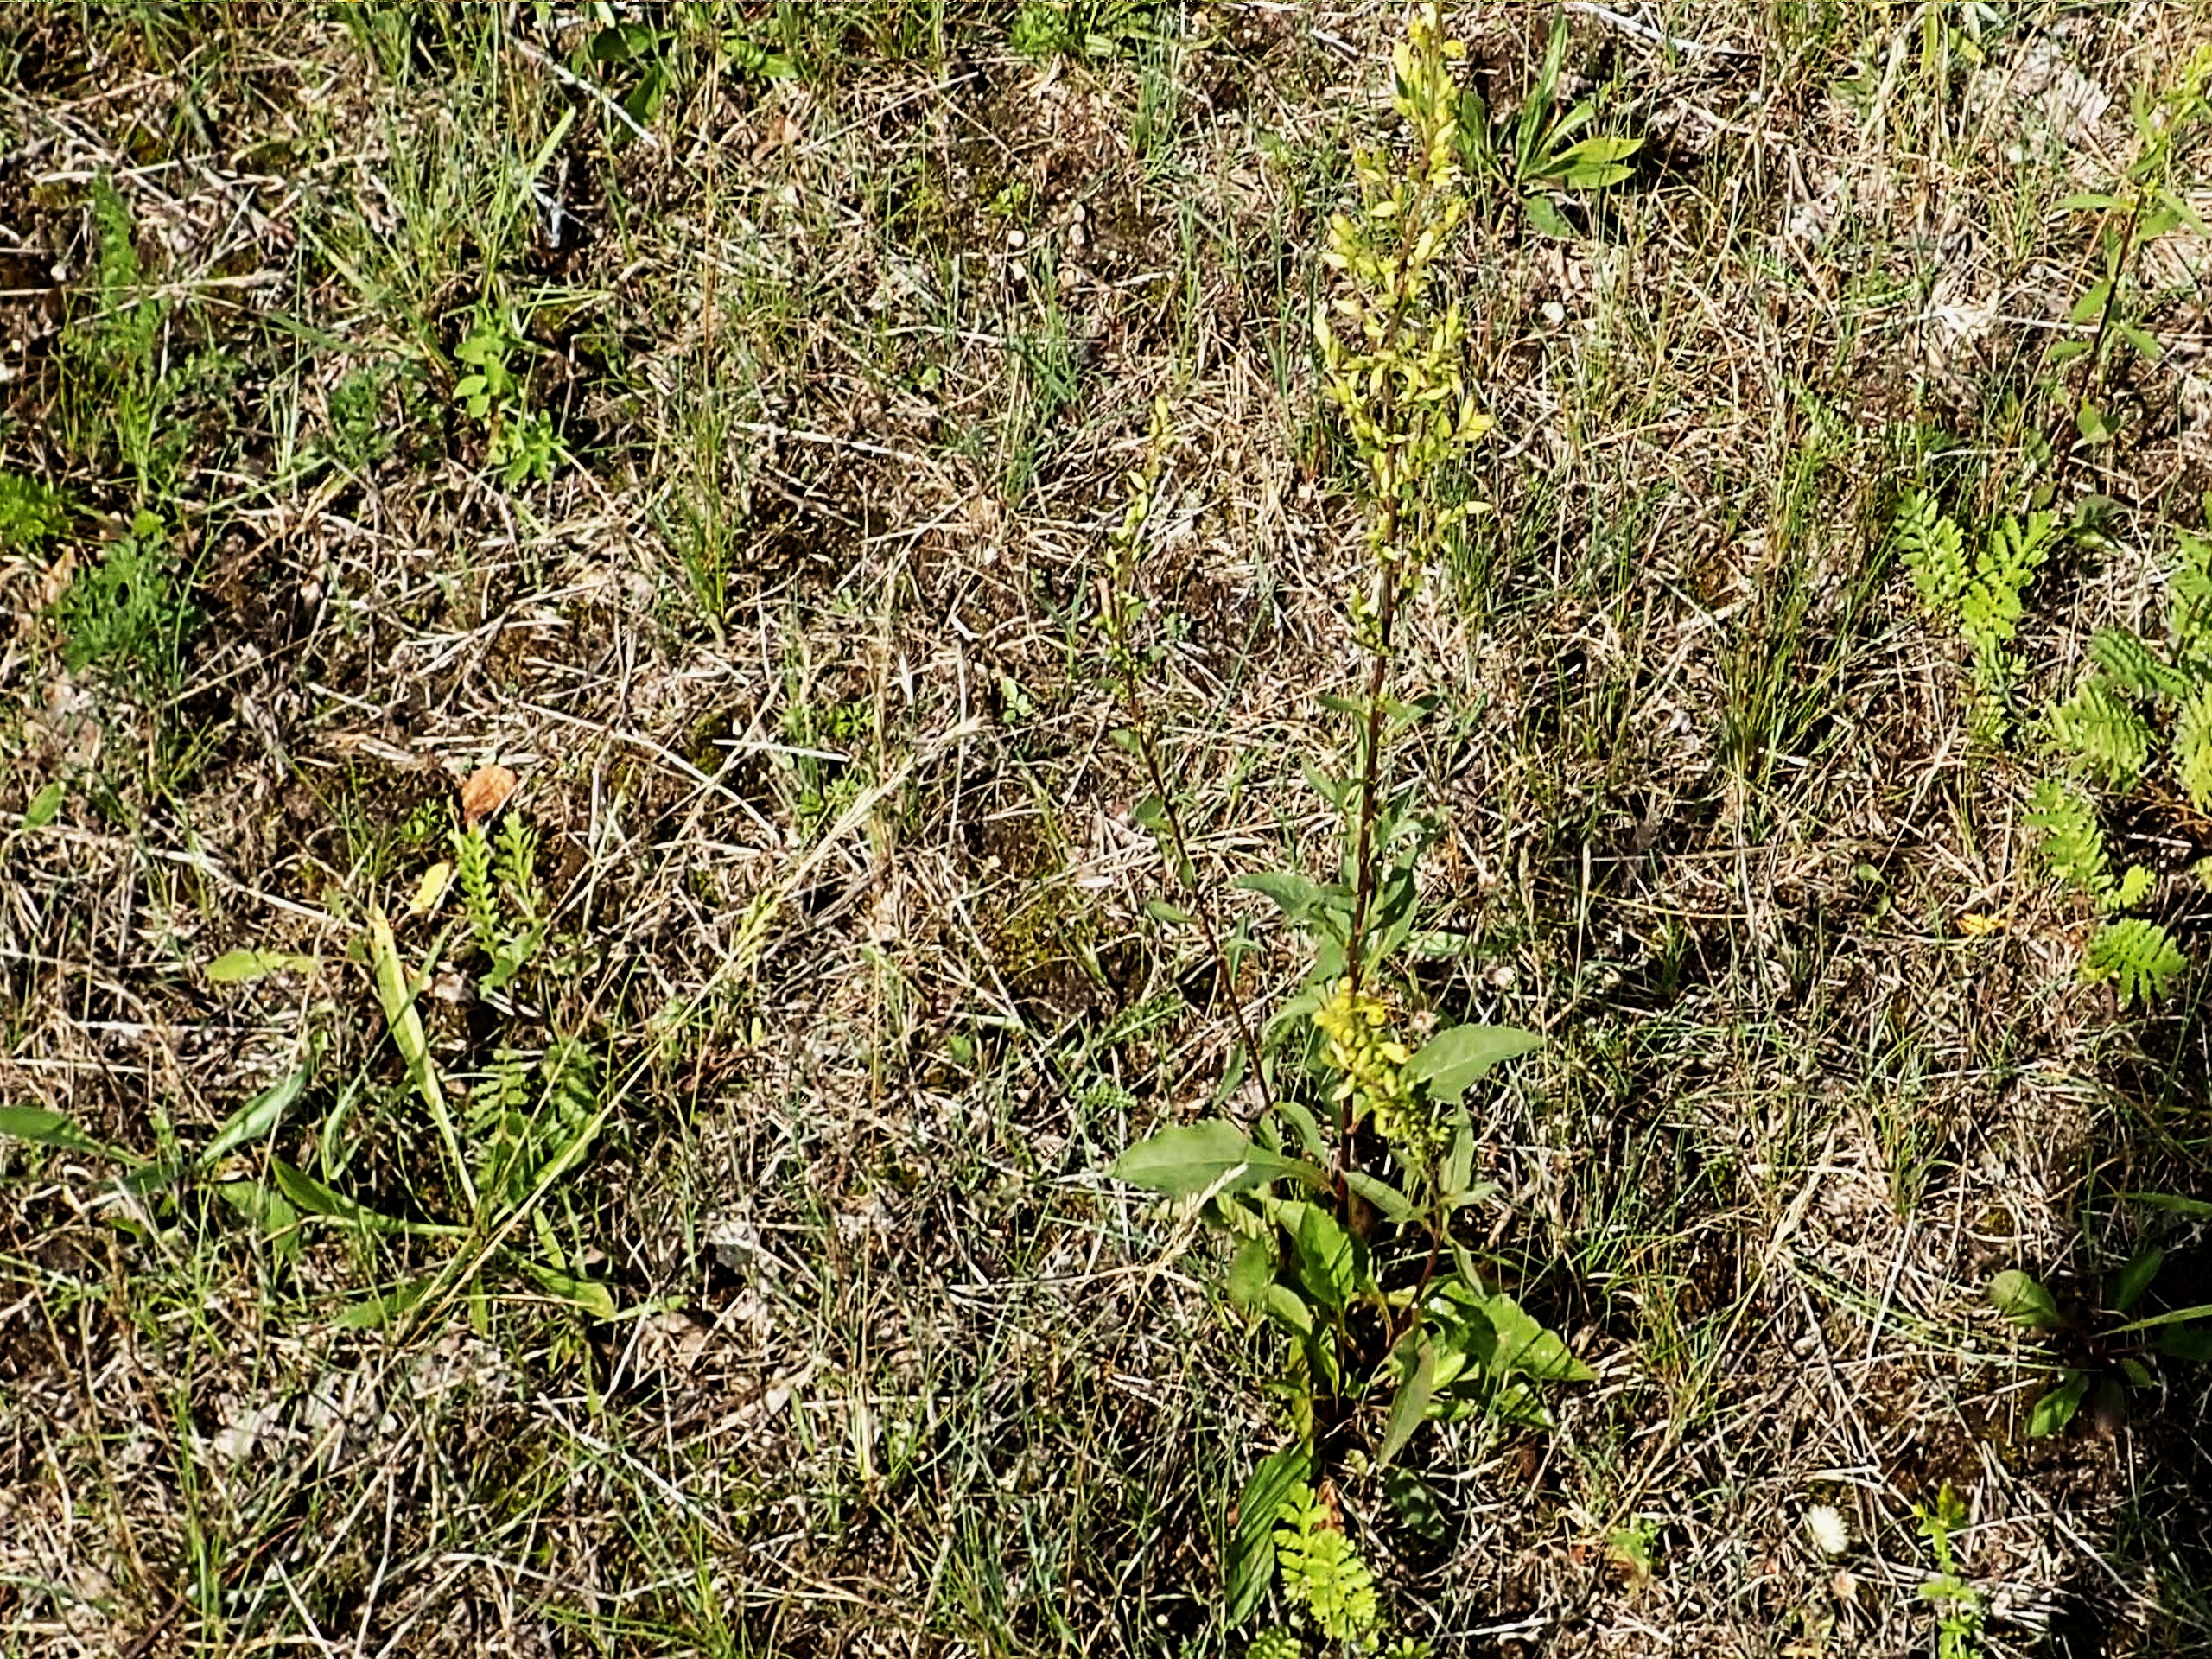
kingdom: Plantae
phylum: Tracheophyta
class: Magnoliopsida
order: Asterales
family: Asteraceae
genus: Solidago
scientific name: Solidago virgaurea
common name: Almindelig gyldenris
